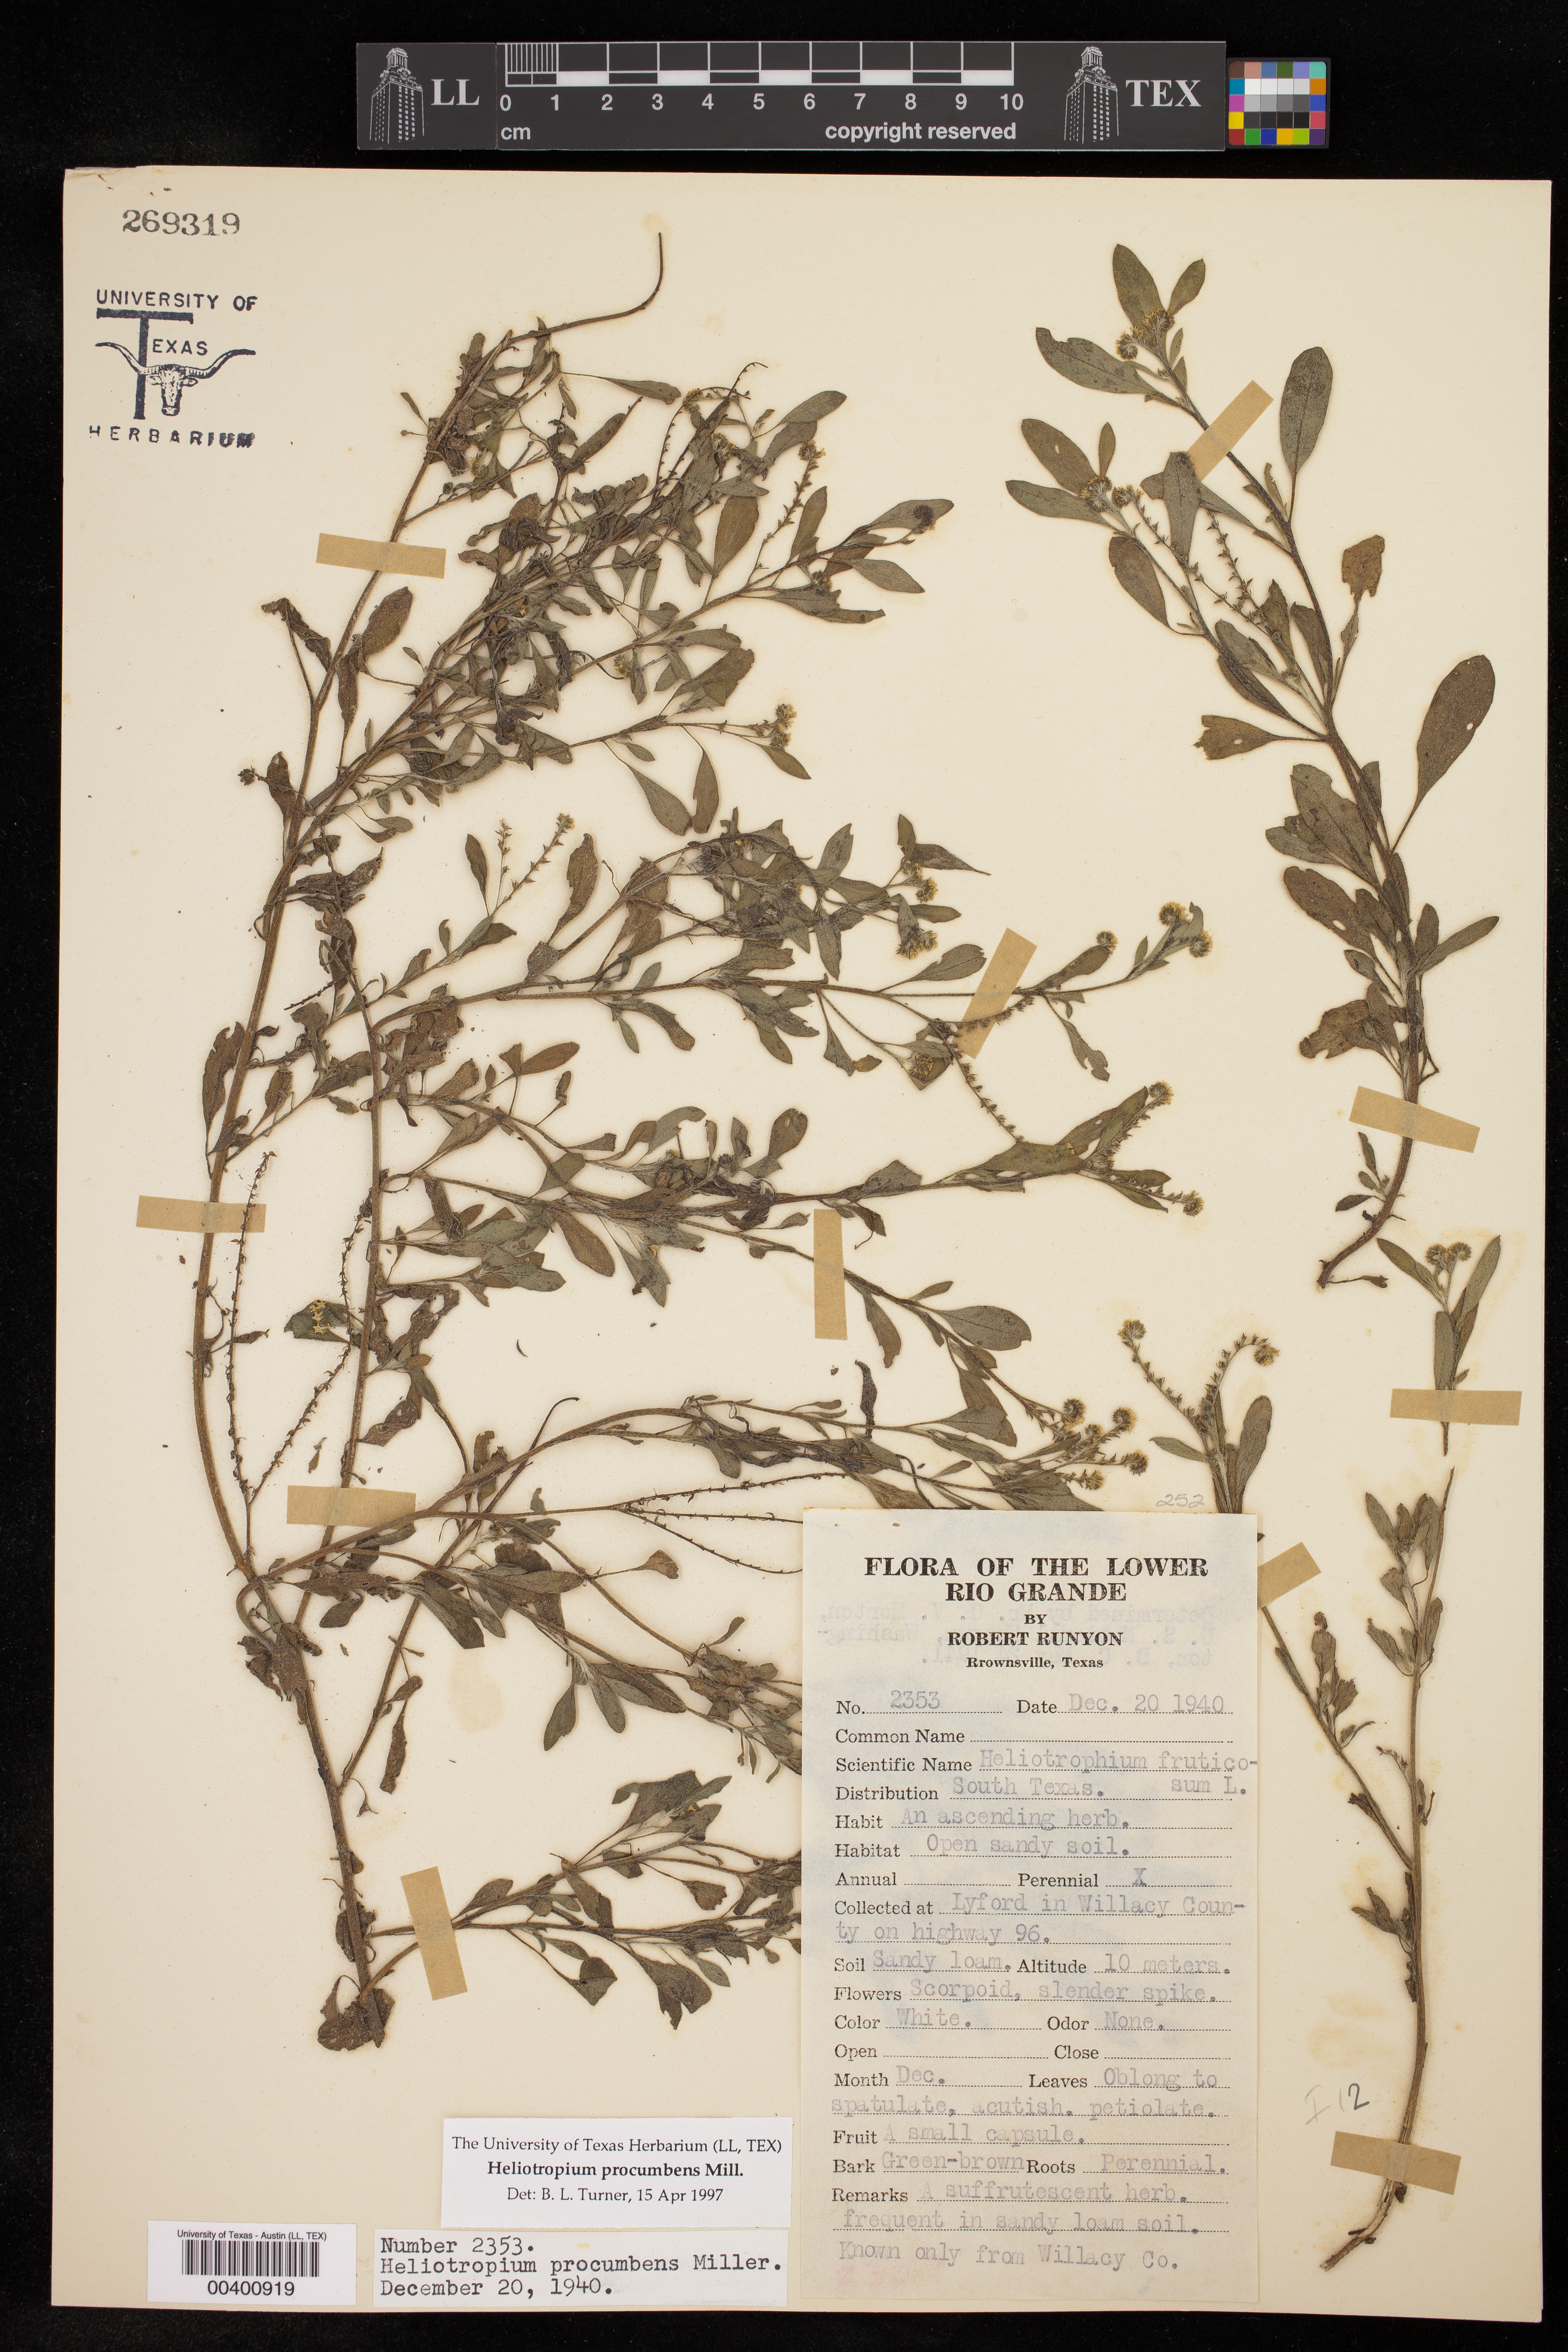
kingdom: Plantae
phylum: Tracheophyta
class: Magnoliopsida
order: Boraginales
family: Heliotropiaceae
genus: Euploca
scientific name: Euploca procumbens
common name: Fourspike heliotrope
